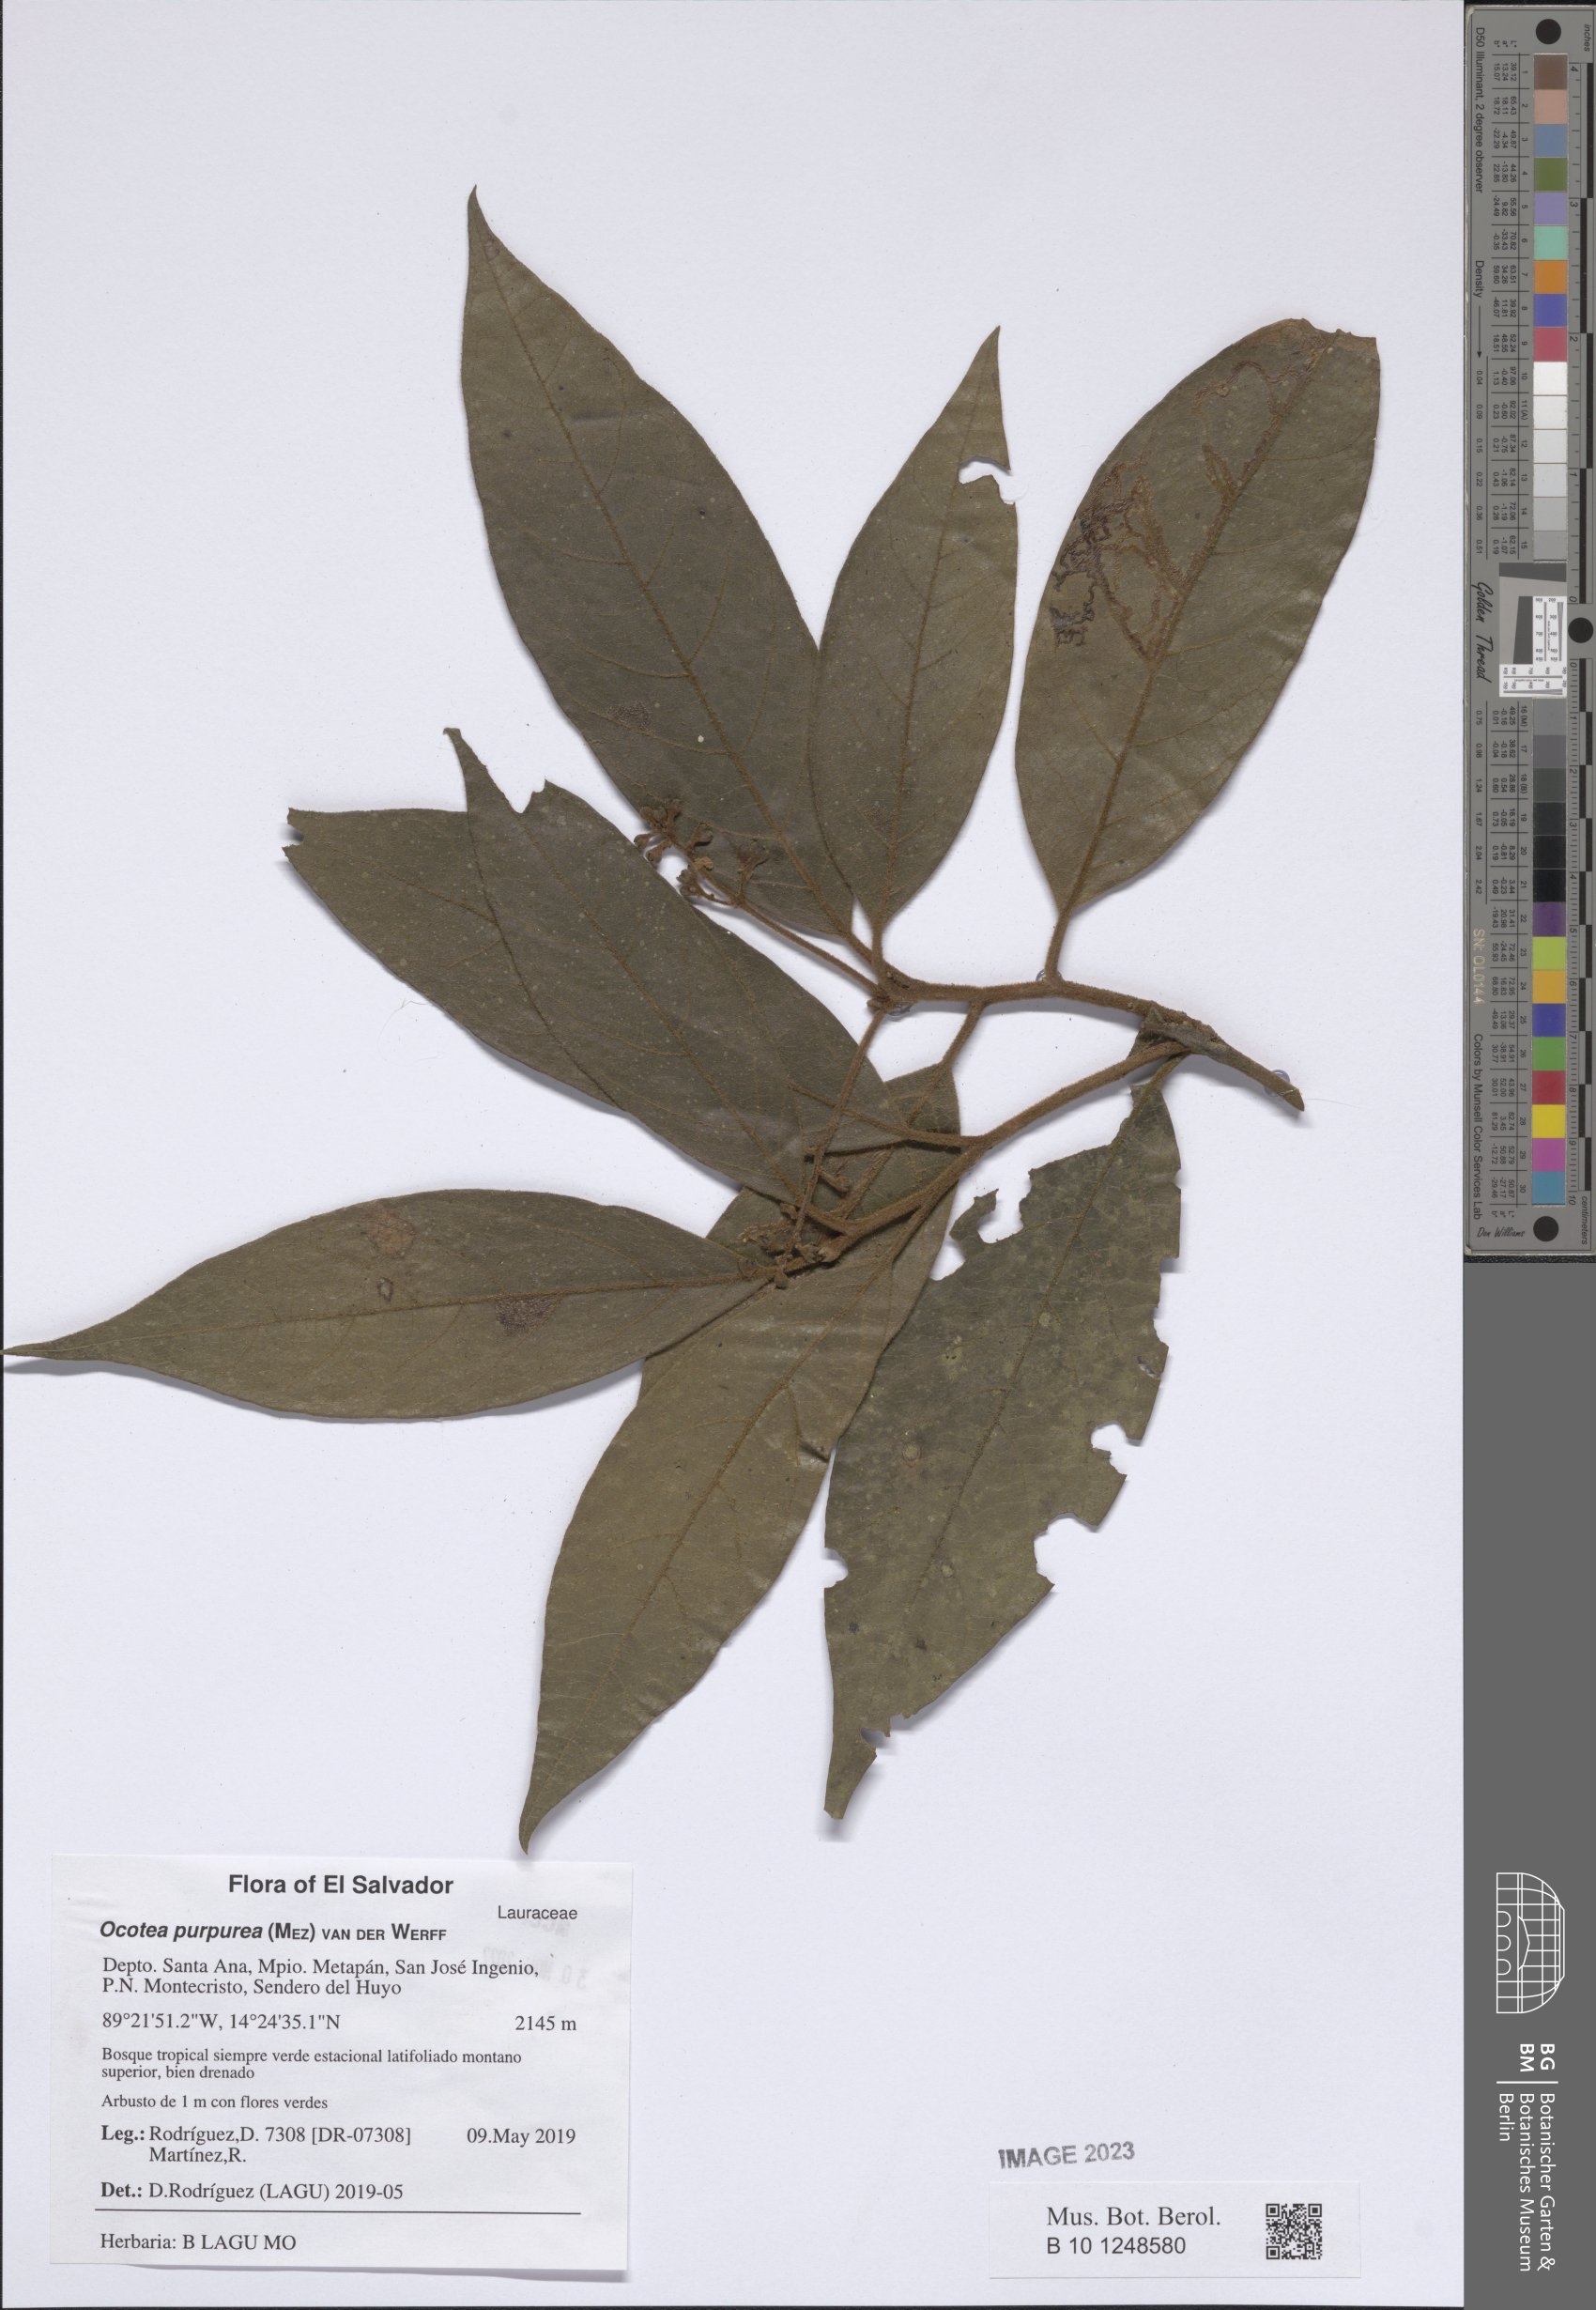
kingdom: Plantae
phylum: Tracheophyta
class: Magnoliopsida
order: Laurales
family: Lauraceae
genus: Ocotea
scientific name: Ocotea purpurea
